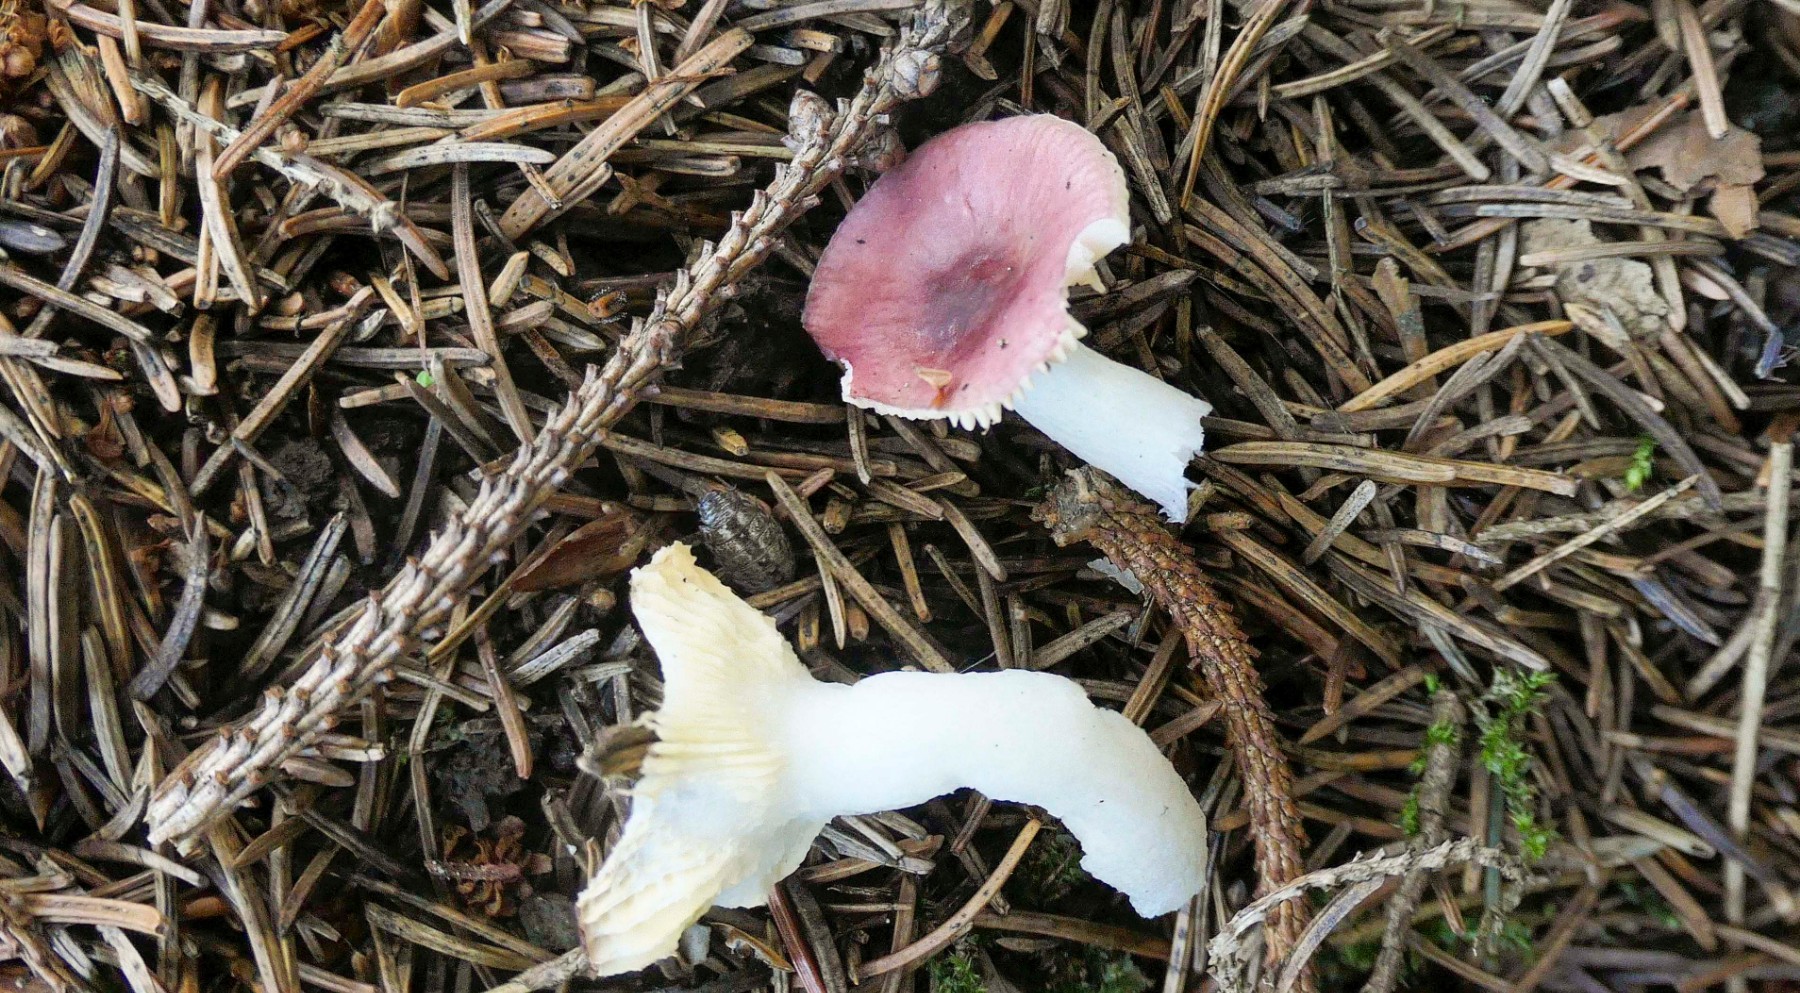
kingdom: Fungi
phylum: Basidiomycota
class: Agaricomycetes
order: Russulales
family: Russulaceae
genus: Russula
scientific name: Russula nauseosa
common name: spinkel skørhat
